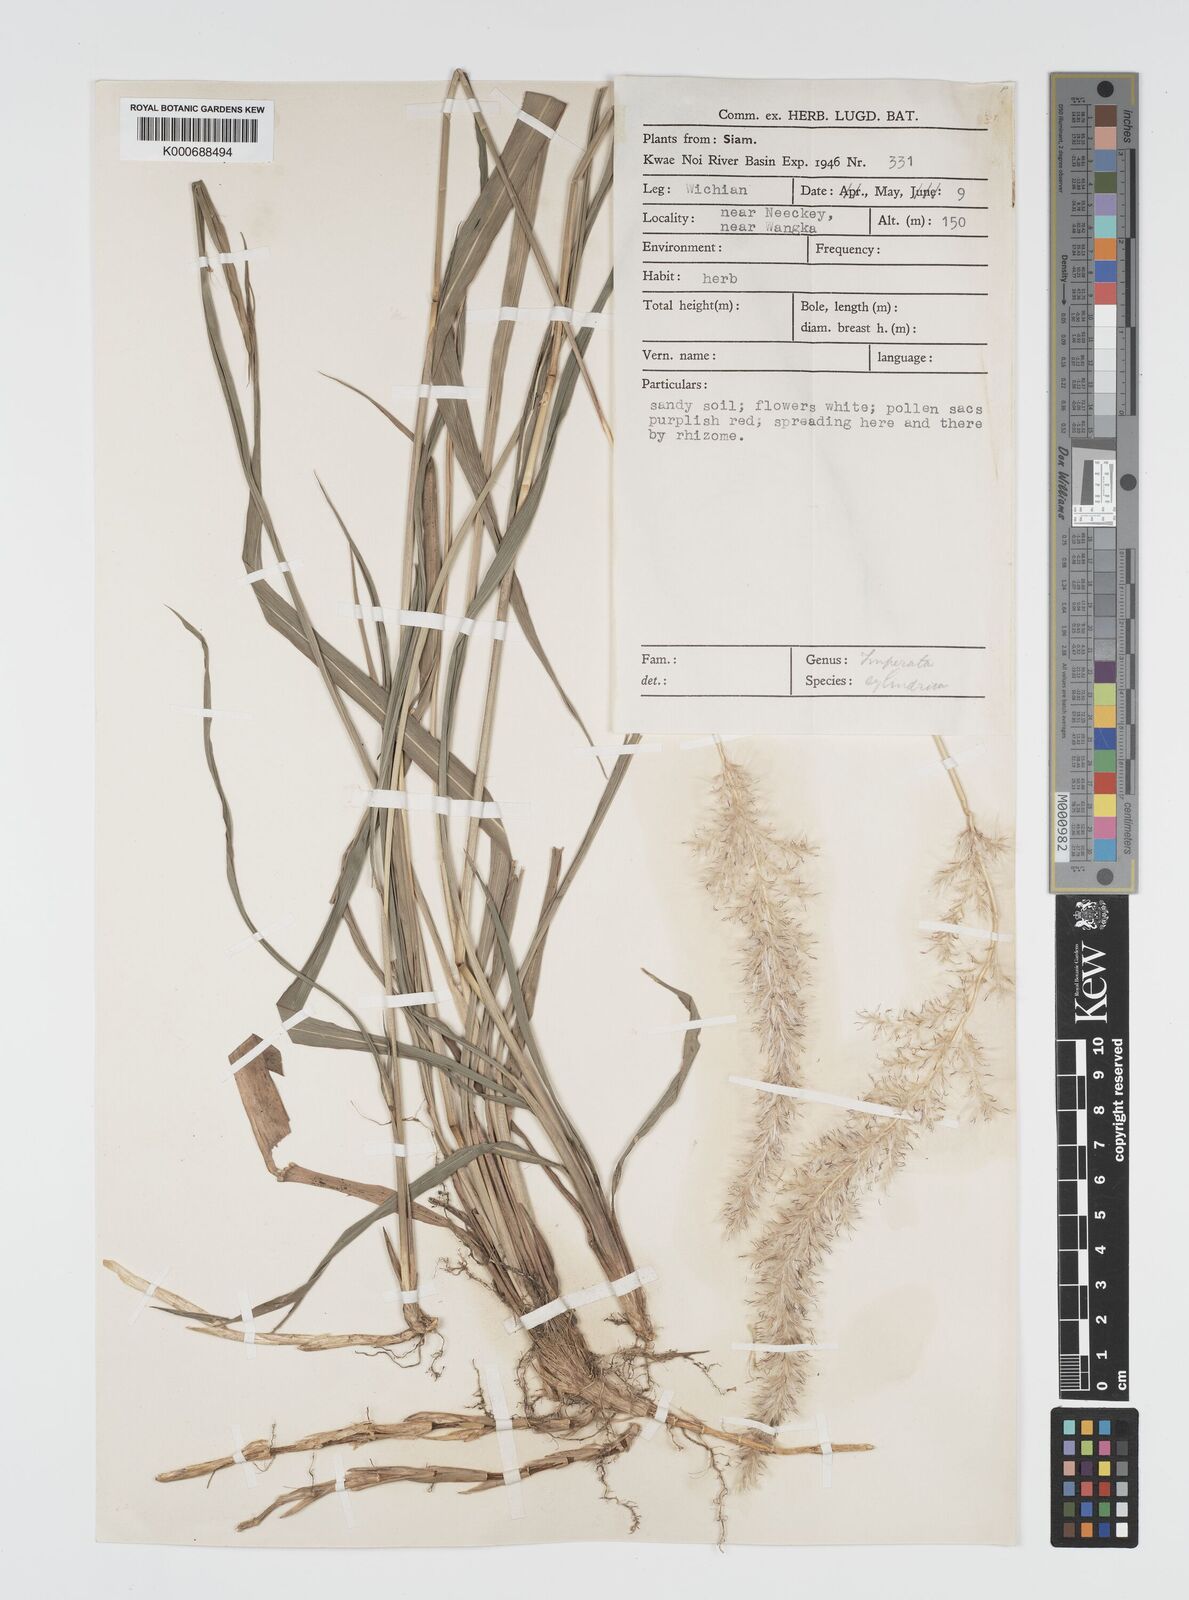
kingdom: Plantae
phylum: Tracheophyta
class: Liliopsida
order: Poales
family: Poaceae
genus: Imperata
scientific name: Imperata conferta
